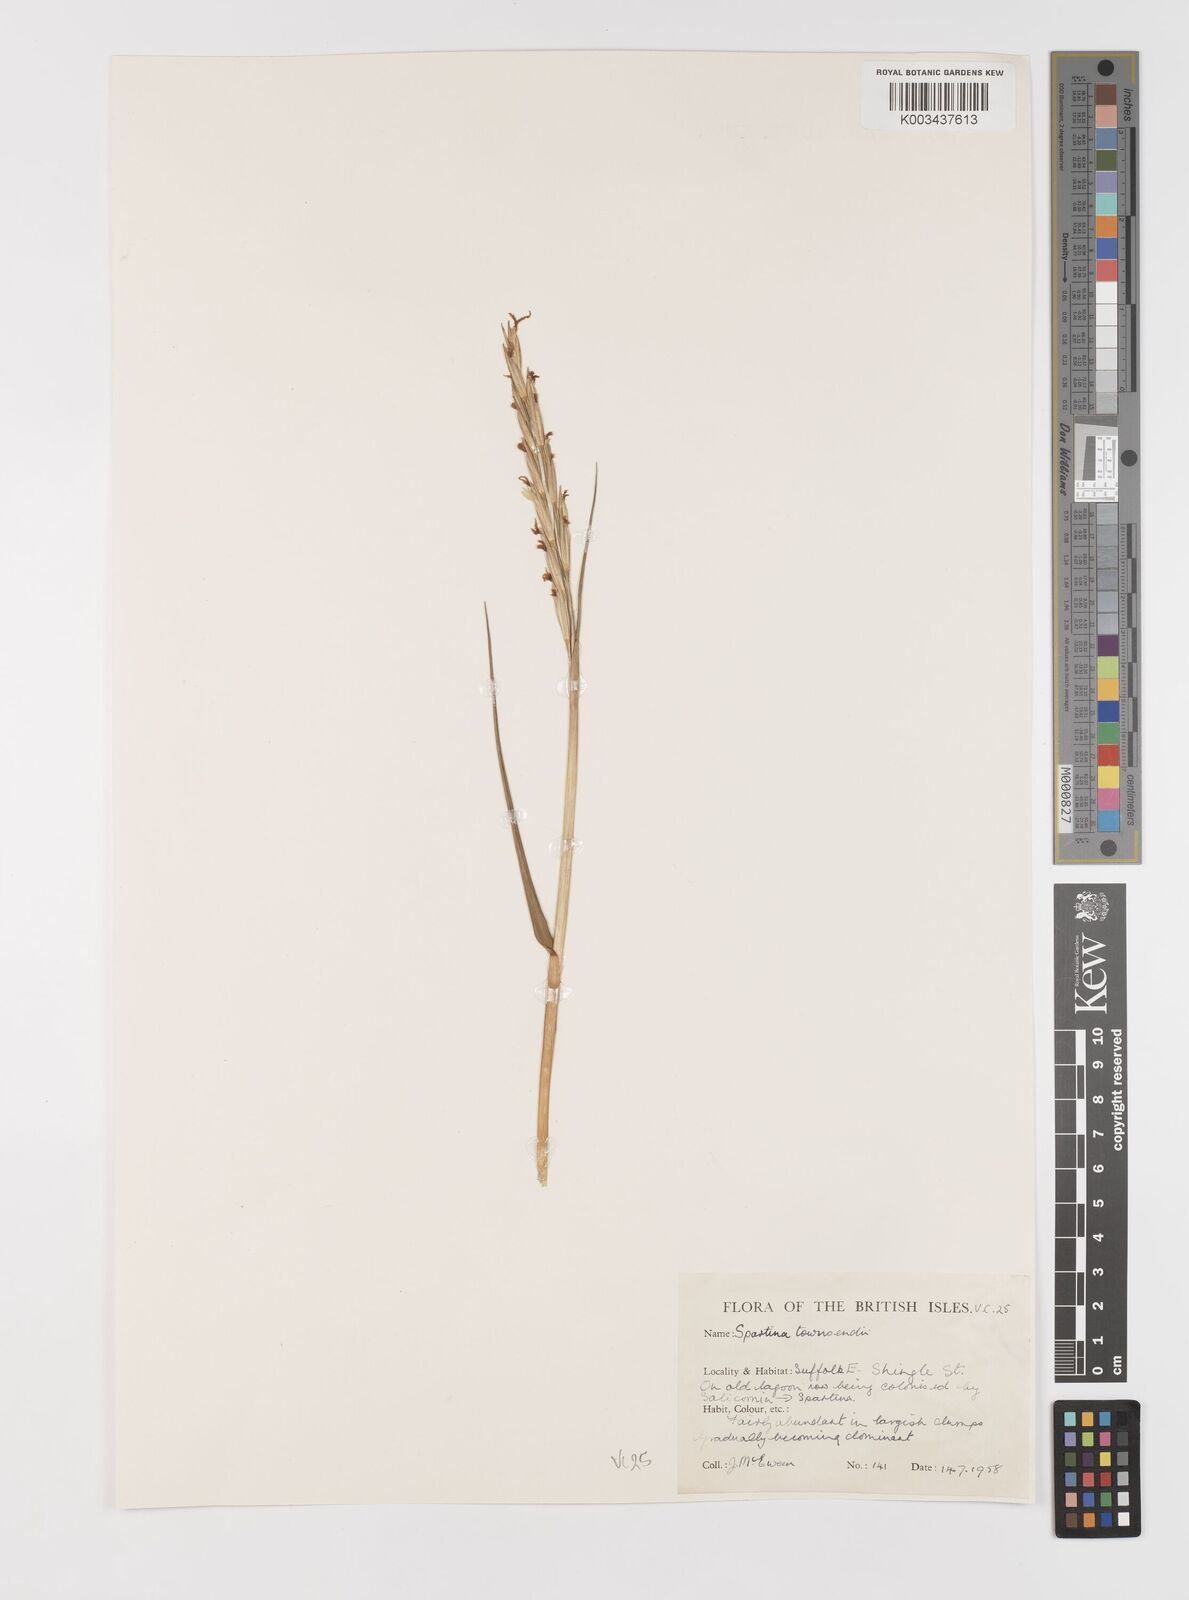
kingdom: Plantae
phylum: Tracheophyta
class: Liliopsida
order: Poales
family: Poaceae
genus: Sporobolus
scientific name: Sporobolus anglicus
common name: English cordgrass
